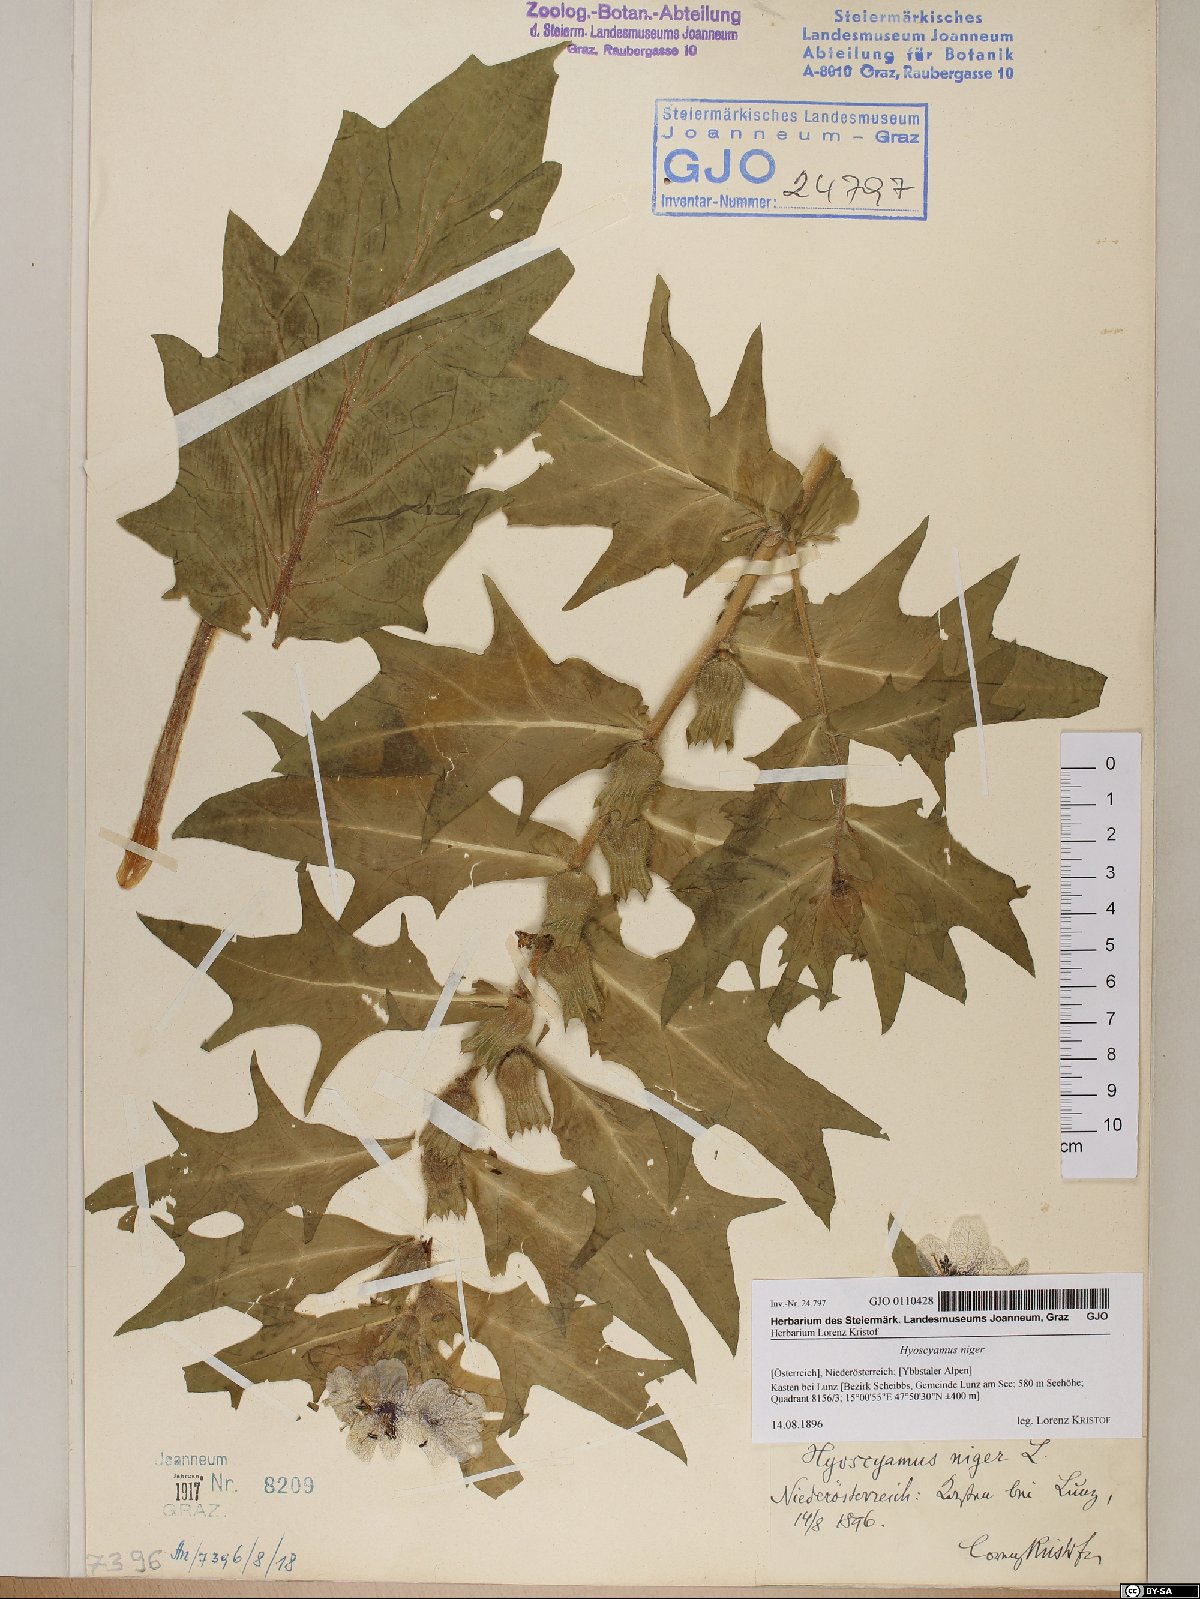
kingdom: Plantae
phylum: Tracheophyta
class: Magnoliopsida
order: Solanales
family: Solanaceae
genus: Hyoscyamus
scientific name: Hyoscyamus niger
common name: Henbane
